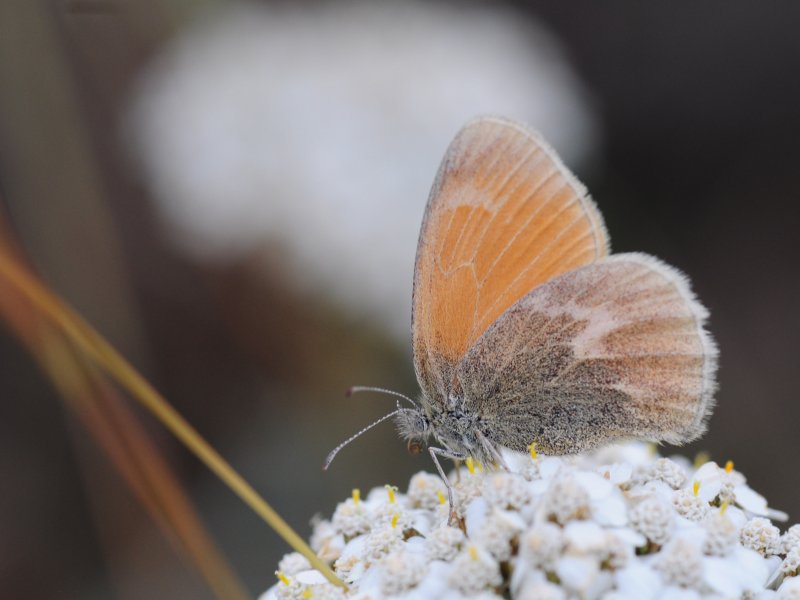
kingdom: Animalia
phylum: Arthropoda
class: Insecta
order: Lepidoptera
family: Nymphalidae
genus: Coenonympha
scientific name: Coenonympha tullia
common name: Large Heath
